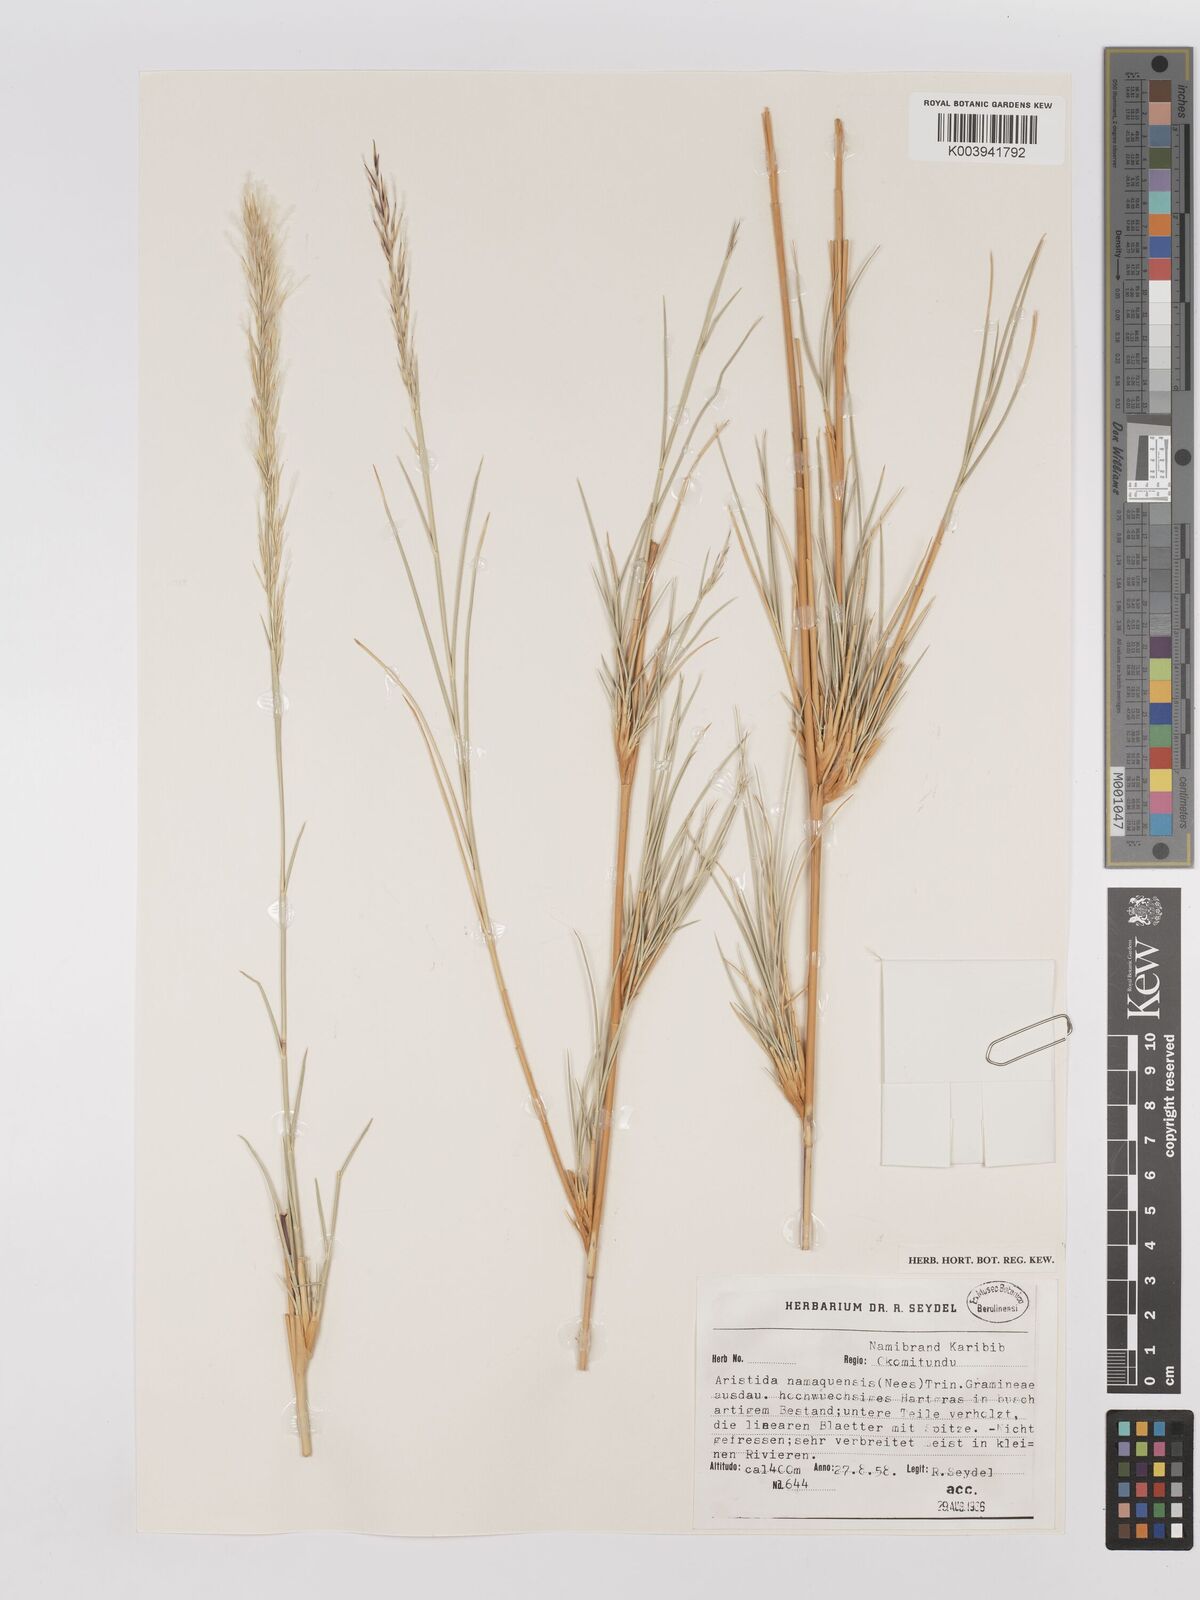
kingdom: Plantae
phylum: Tracheophyta
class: Liliopsida
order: Poales
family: Poaceae
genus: Stipagrostis
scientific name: Stipagrostis namaquensis
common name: River bushman grass
